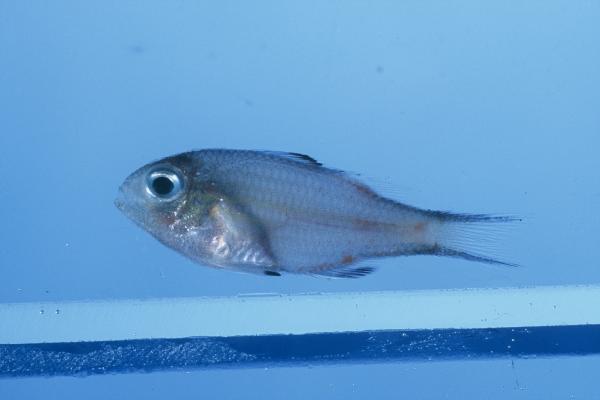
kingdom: Animalia
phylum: Chordata
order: Perciformes
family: Pomacentridae
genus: Chromis
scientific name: Chromis
